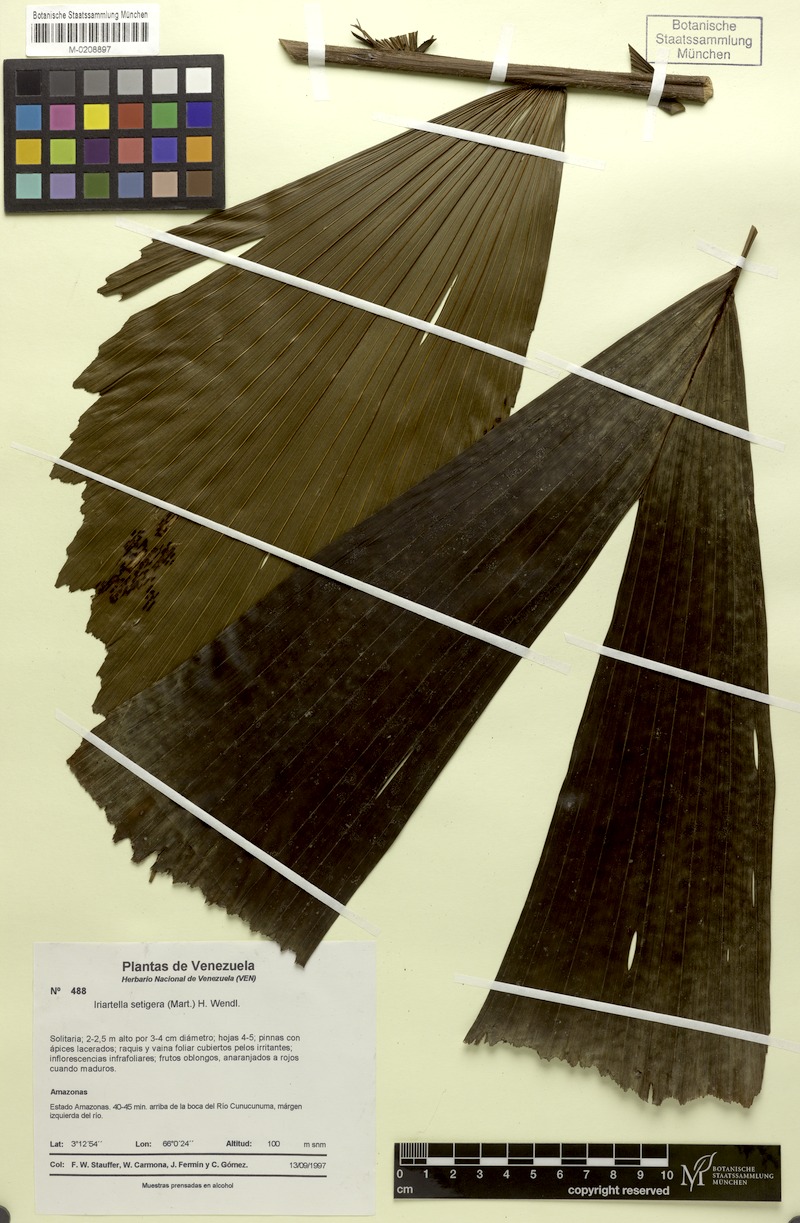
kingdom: Plantae
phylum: Tracheophyta
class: Liliopsida
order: Arecales
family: Arecaceae
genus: Iriartella
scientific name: Iriartella setigera
